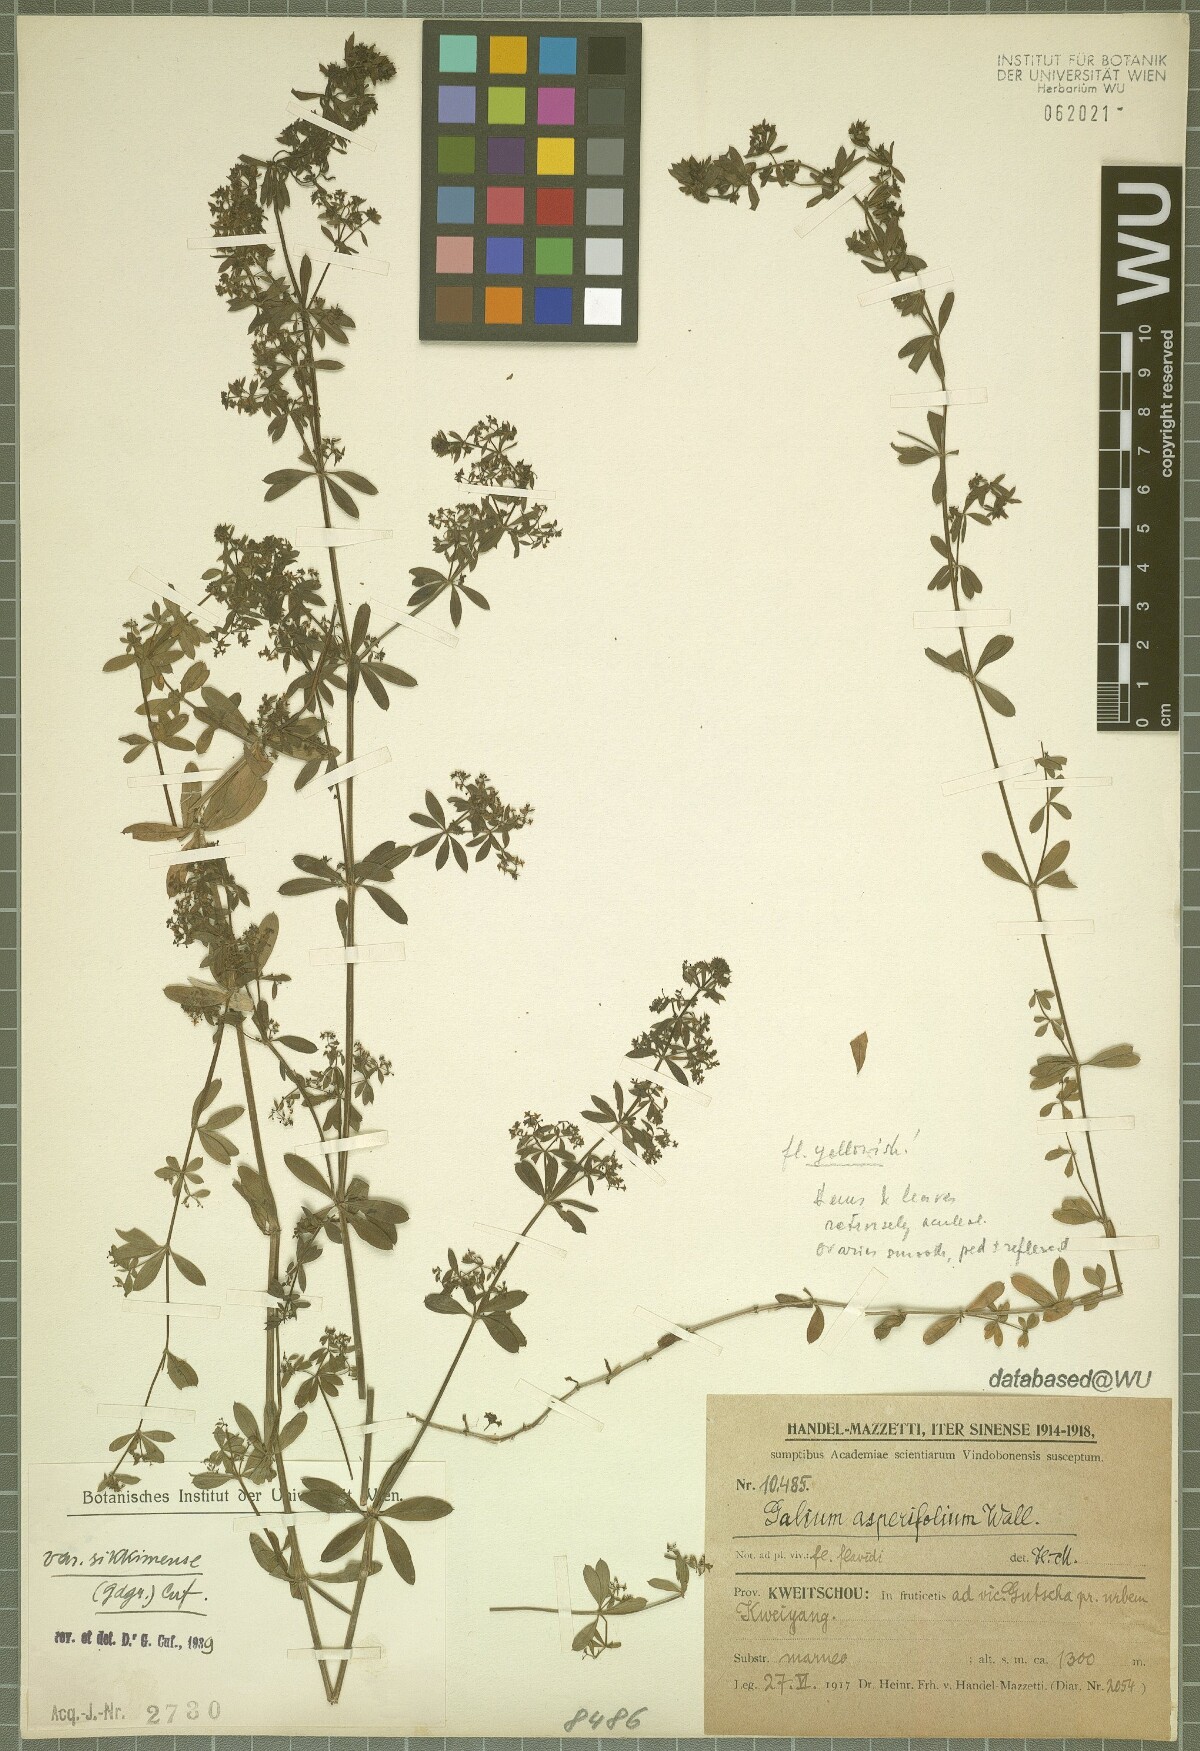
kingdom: Plantae
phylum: Tracheophyta
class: Magnoliopsida
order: Gentianales
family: Rubiaceae
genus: Galium
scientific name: Galium asperifolium
